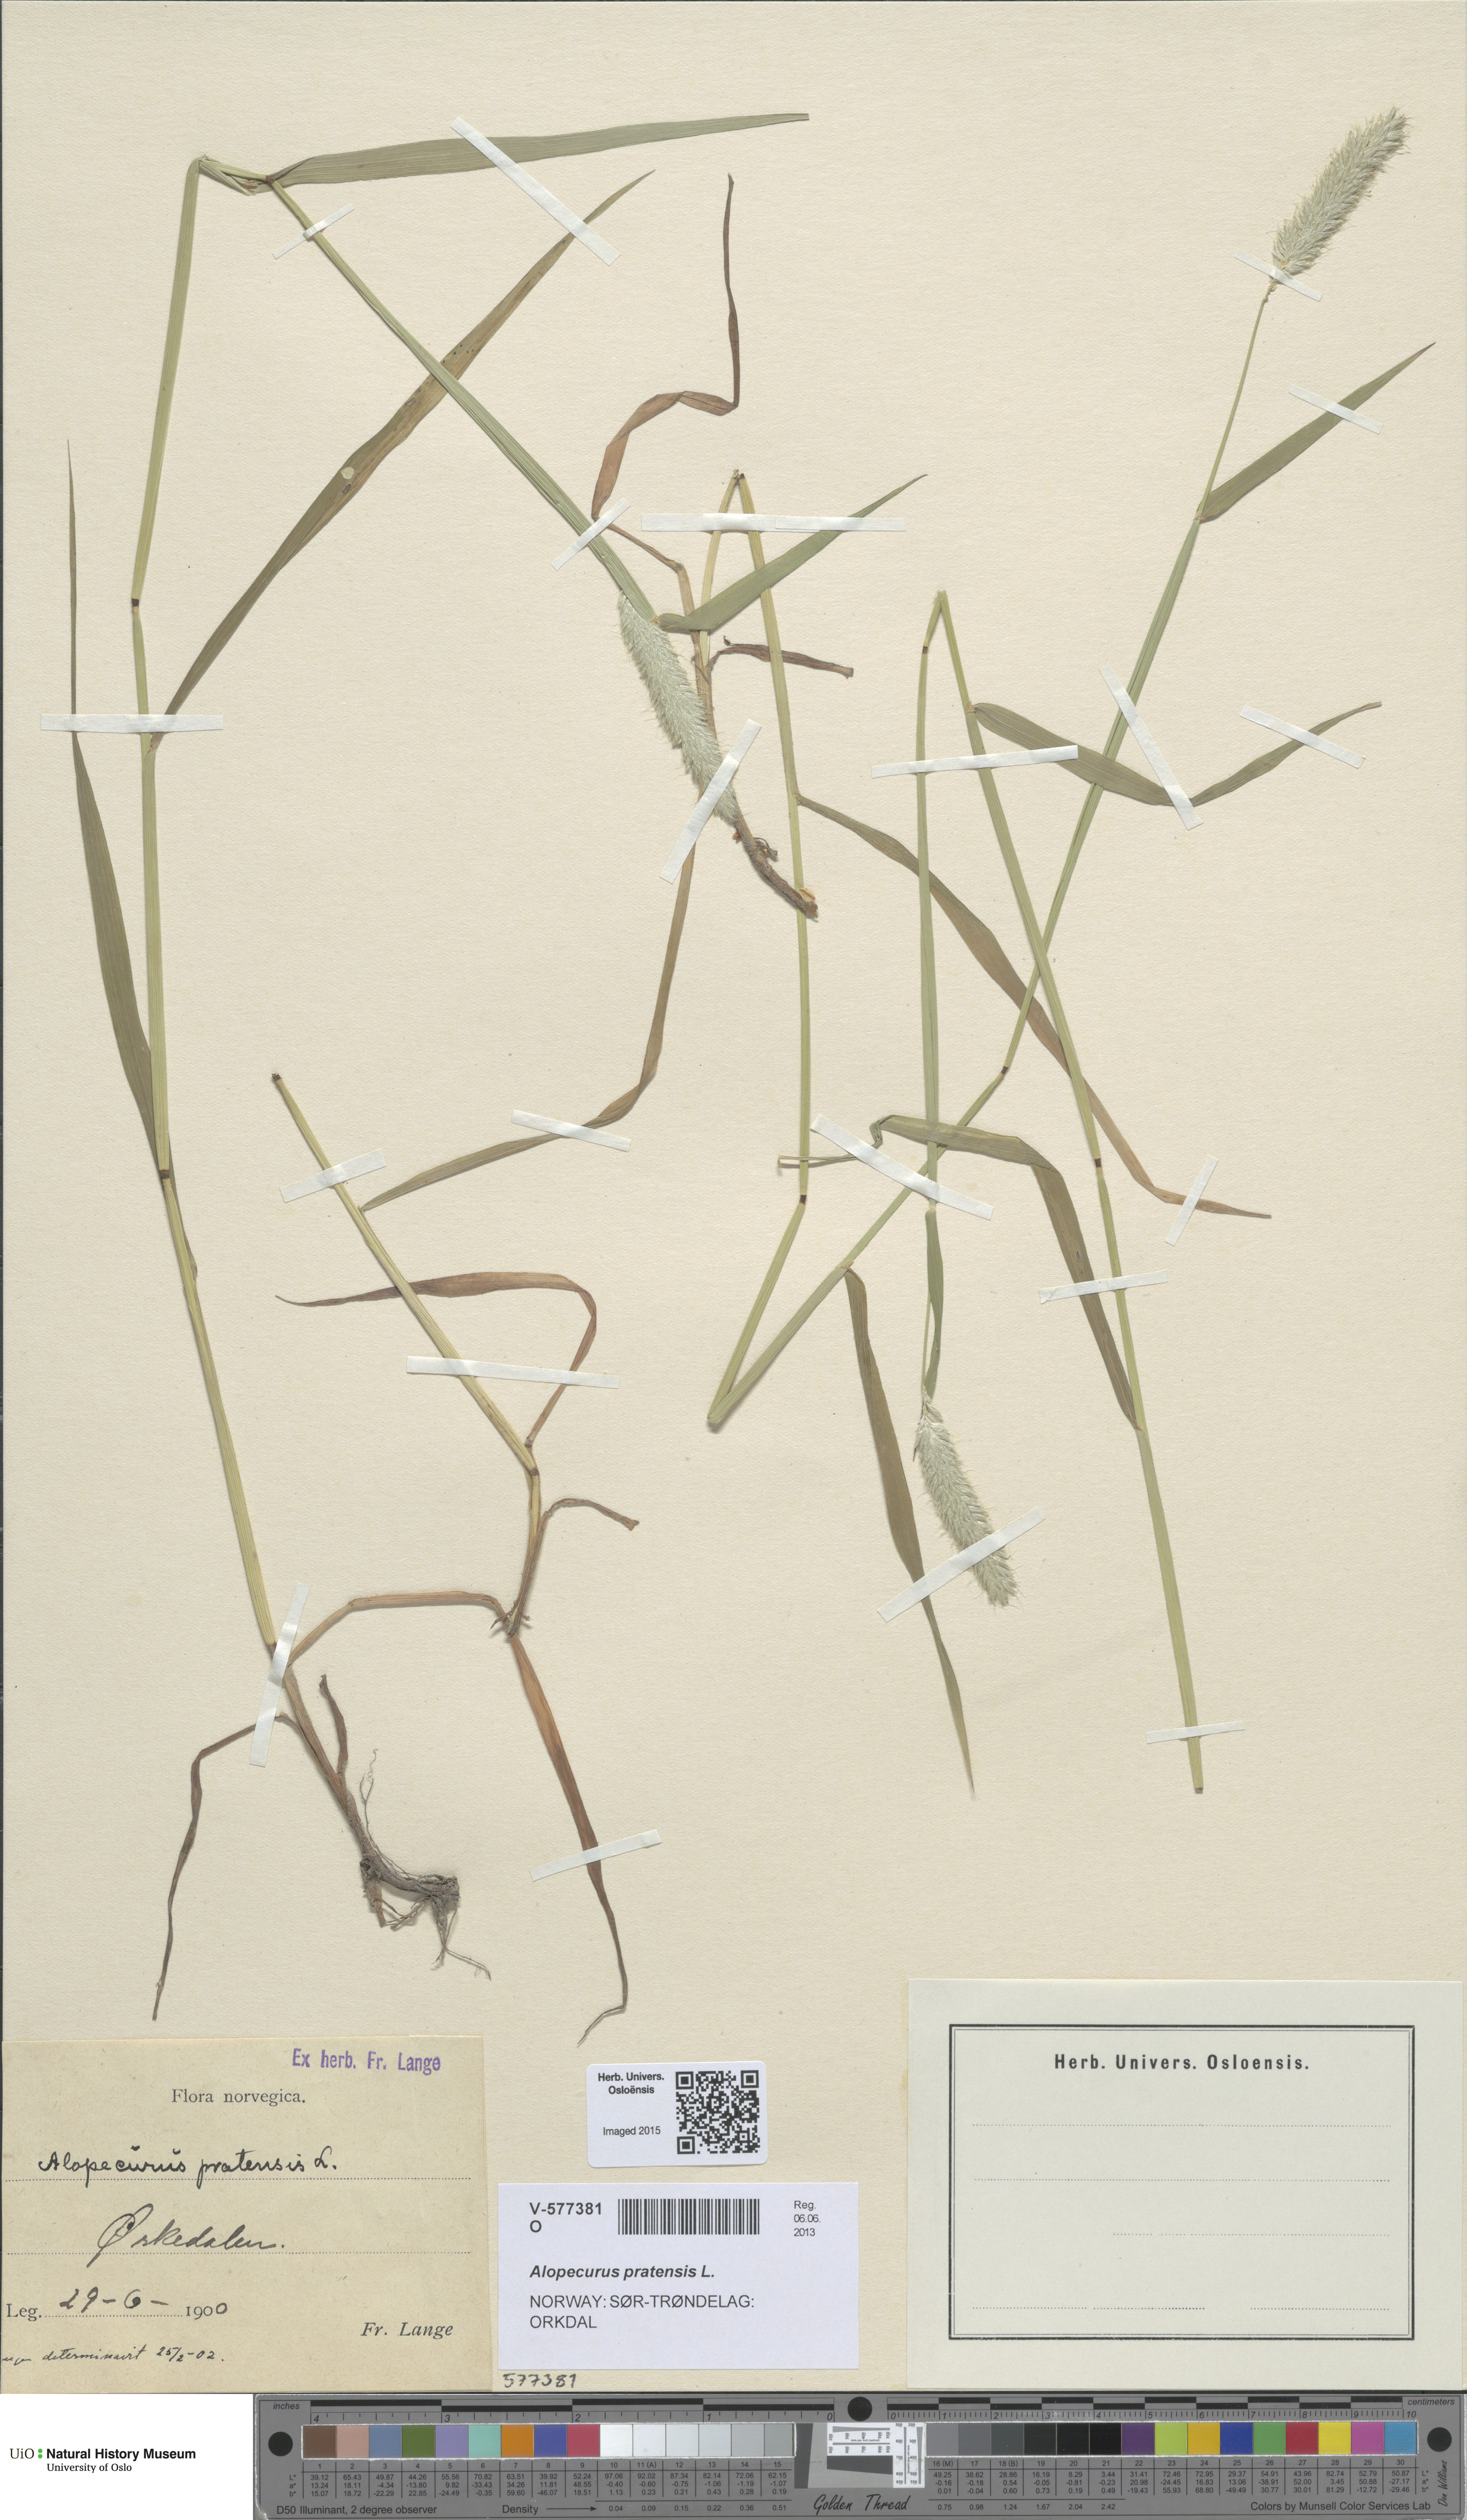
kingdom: Plantae
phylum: Tracheophyta
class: Liliopsida
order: Poales
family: Poaceae
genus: Alopecurus
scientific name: Alopecurus pratensis
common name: Meadow foxtail
